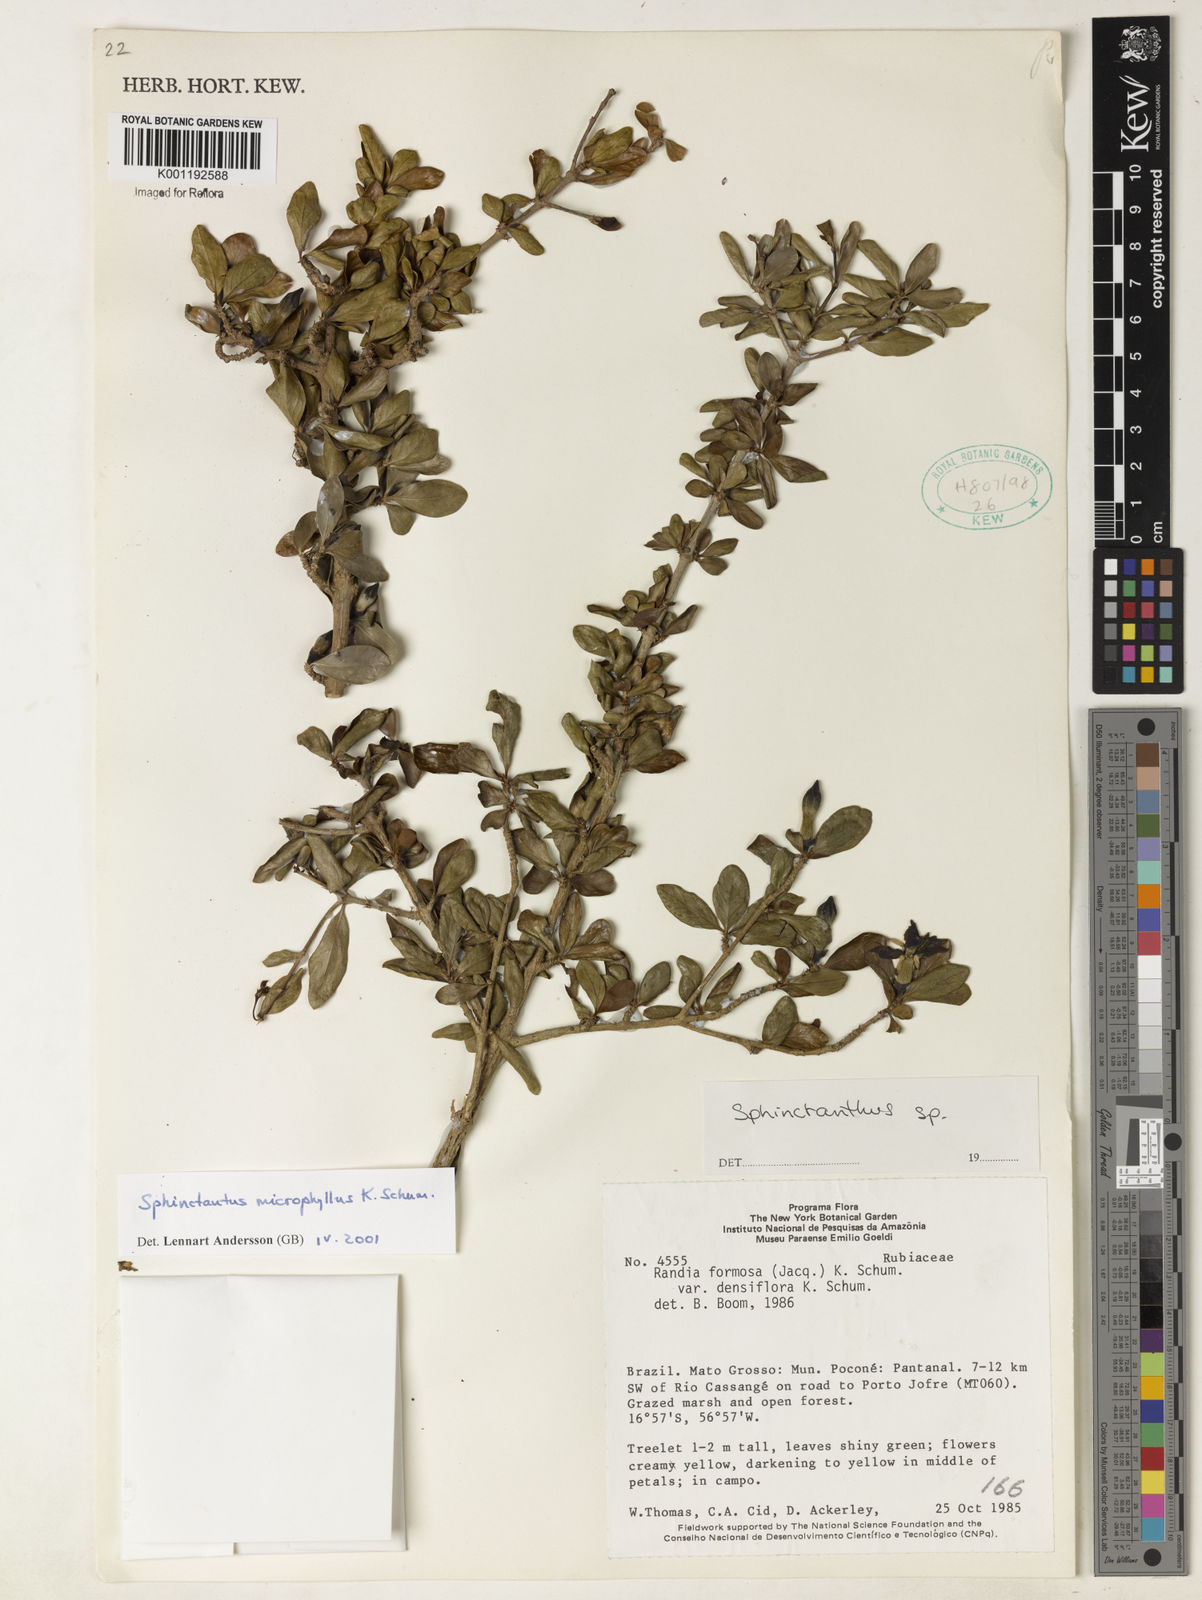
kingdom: Plantae
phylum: Tracheophyta
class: Magnoliopsida
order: Gentianales
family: Rubiaceae
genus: Sphinctanthus
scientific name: Sphinctanthus microphyllus
